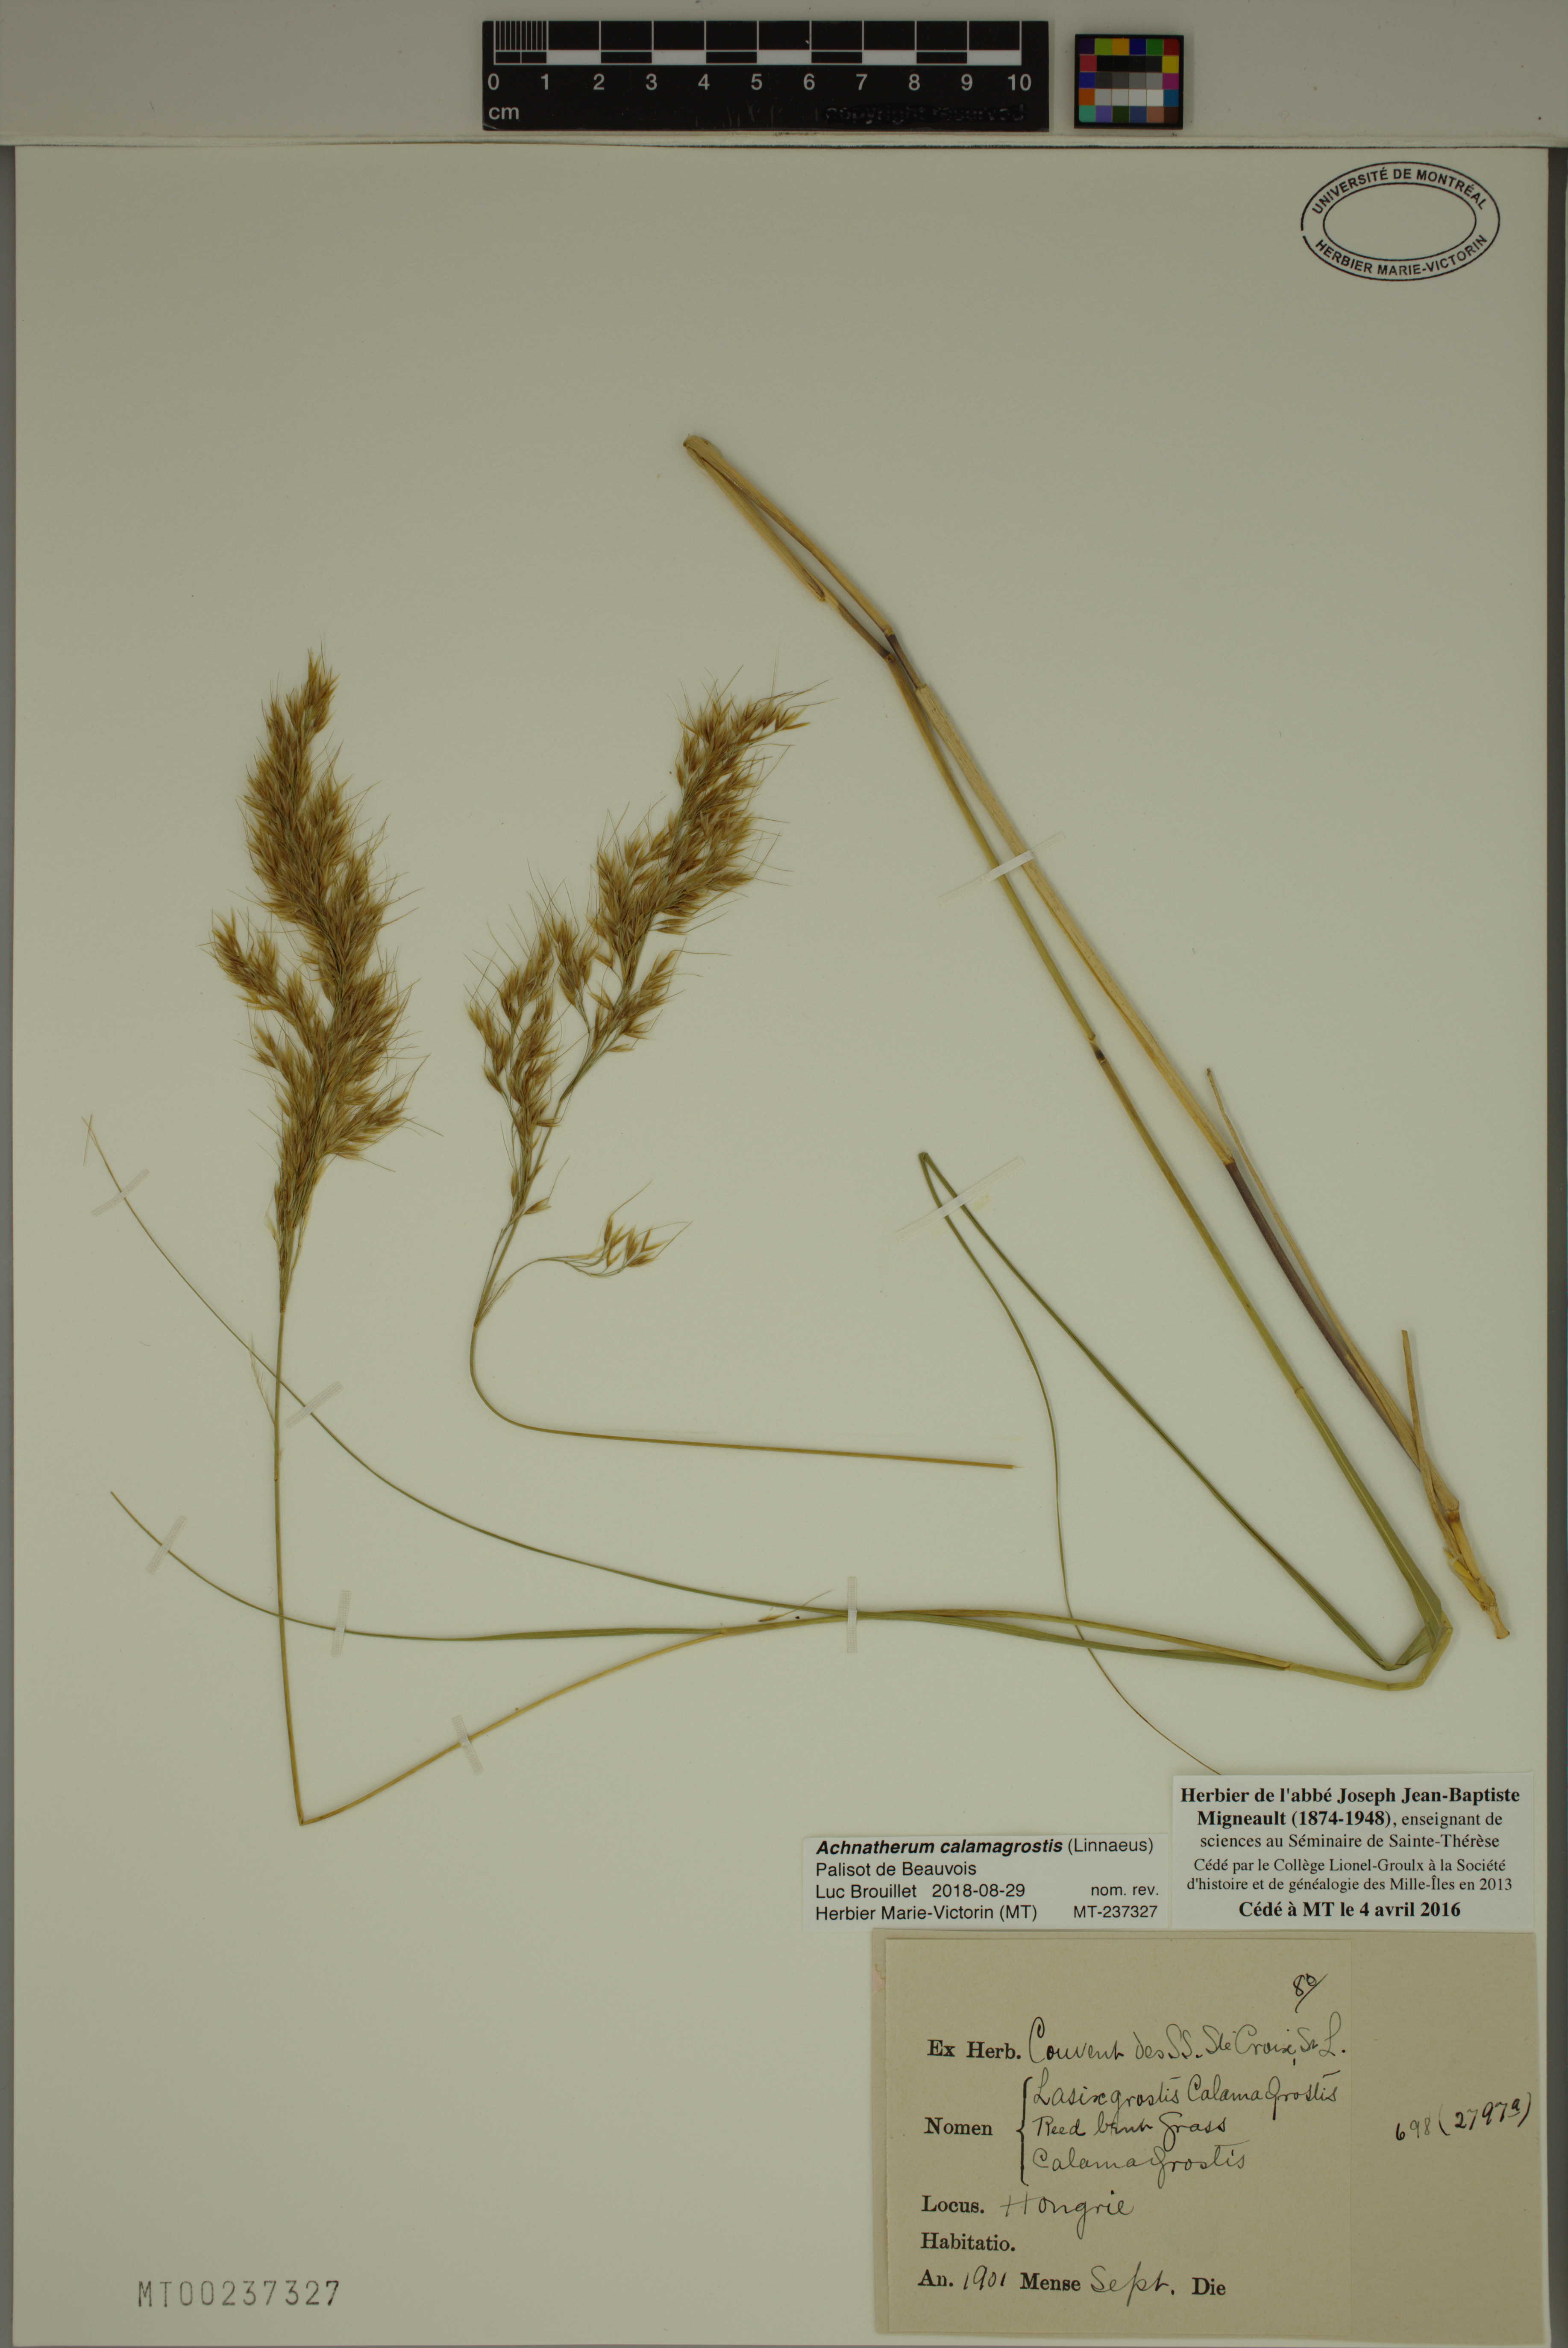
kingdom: Plantae
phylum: Tracheophyta
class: Liliopsida
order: Poales
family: Poaceae
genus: Achnatherum
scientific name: Achnatherum calamagrostis
